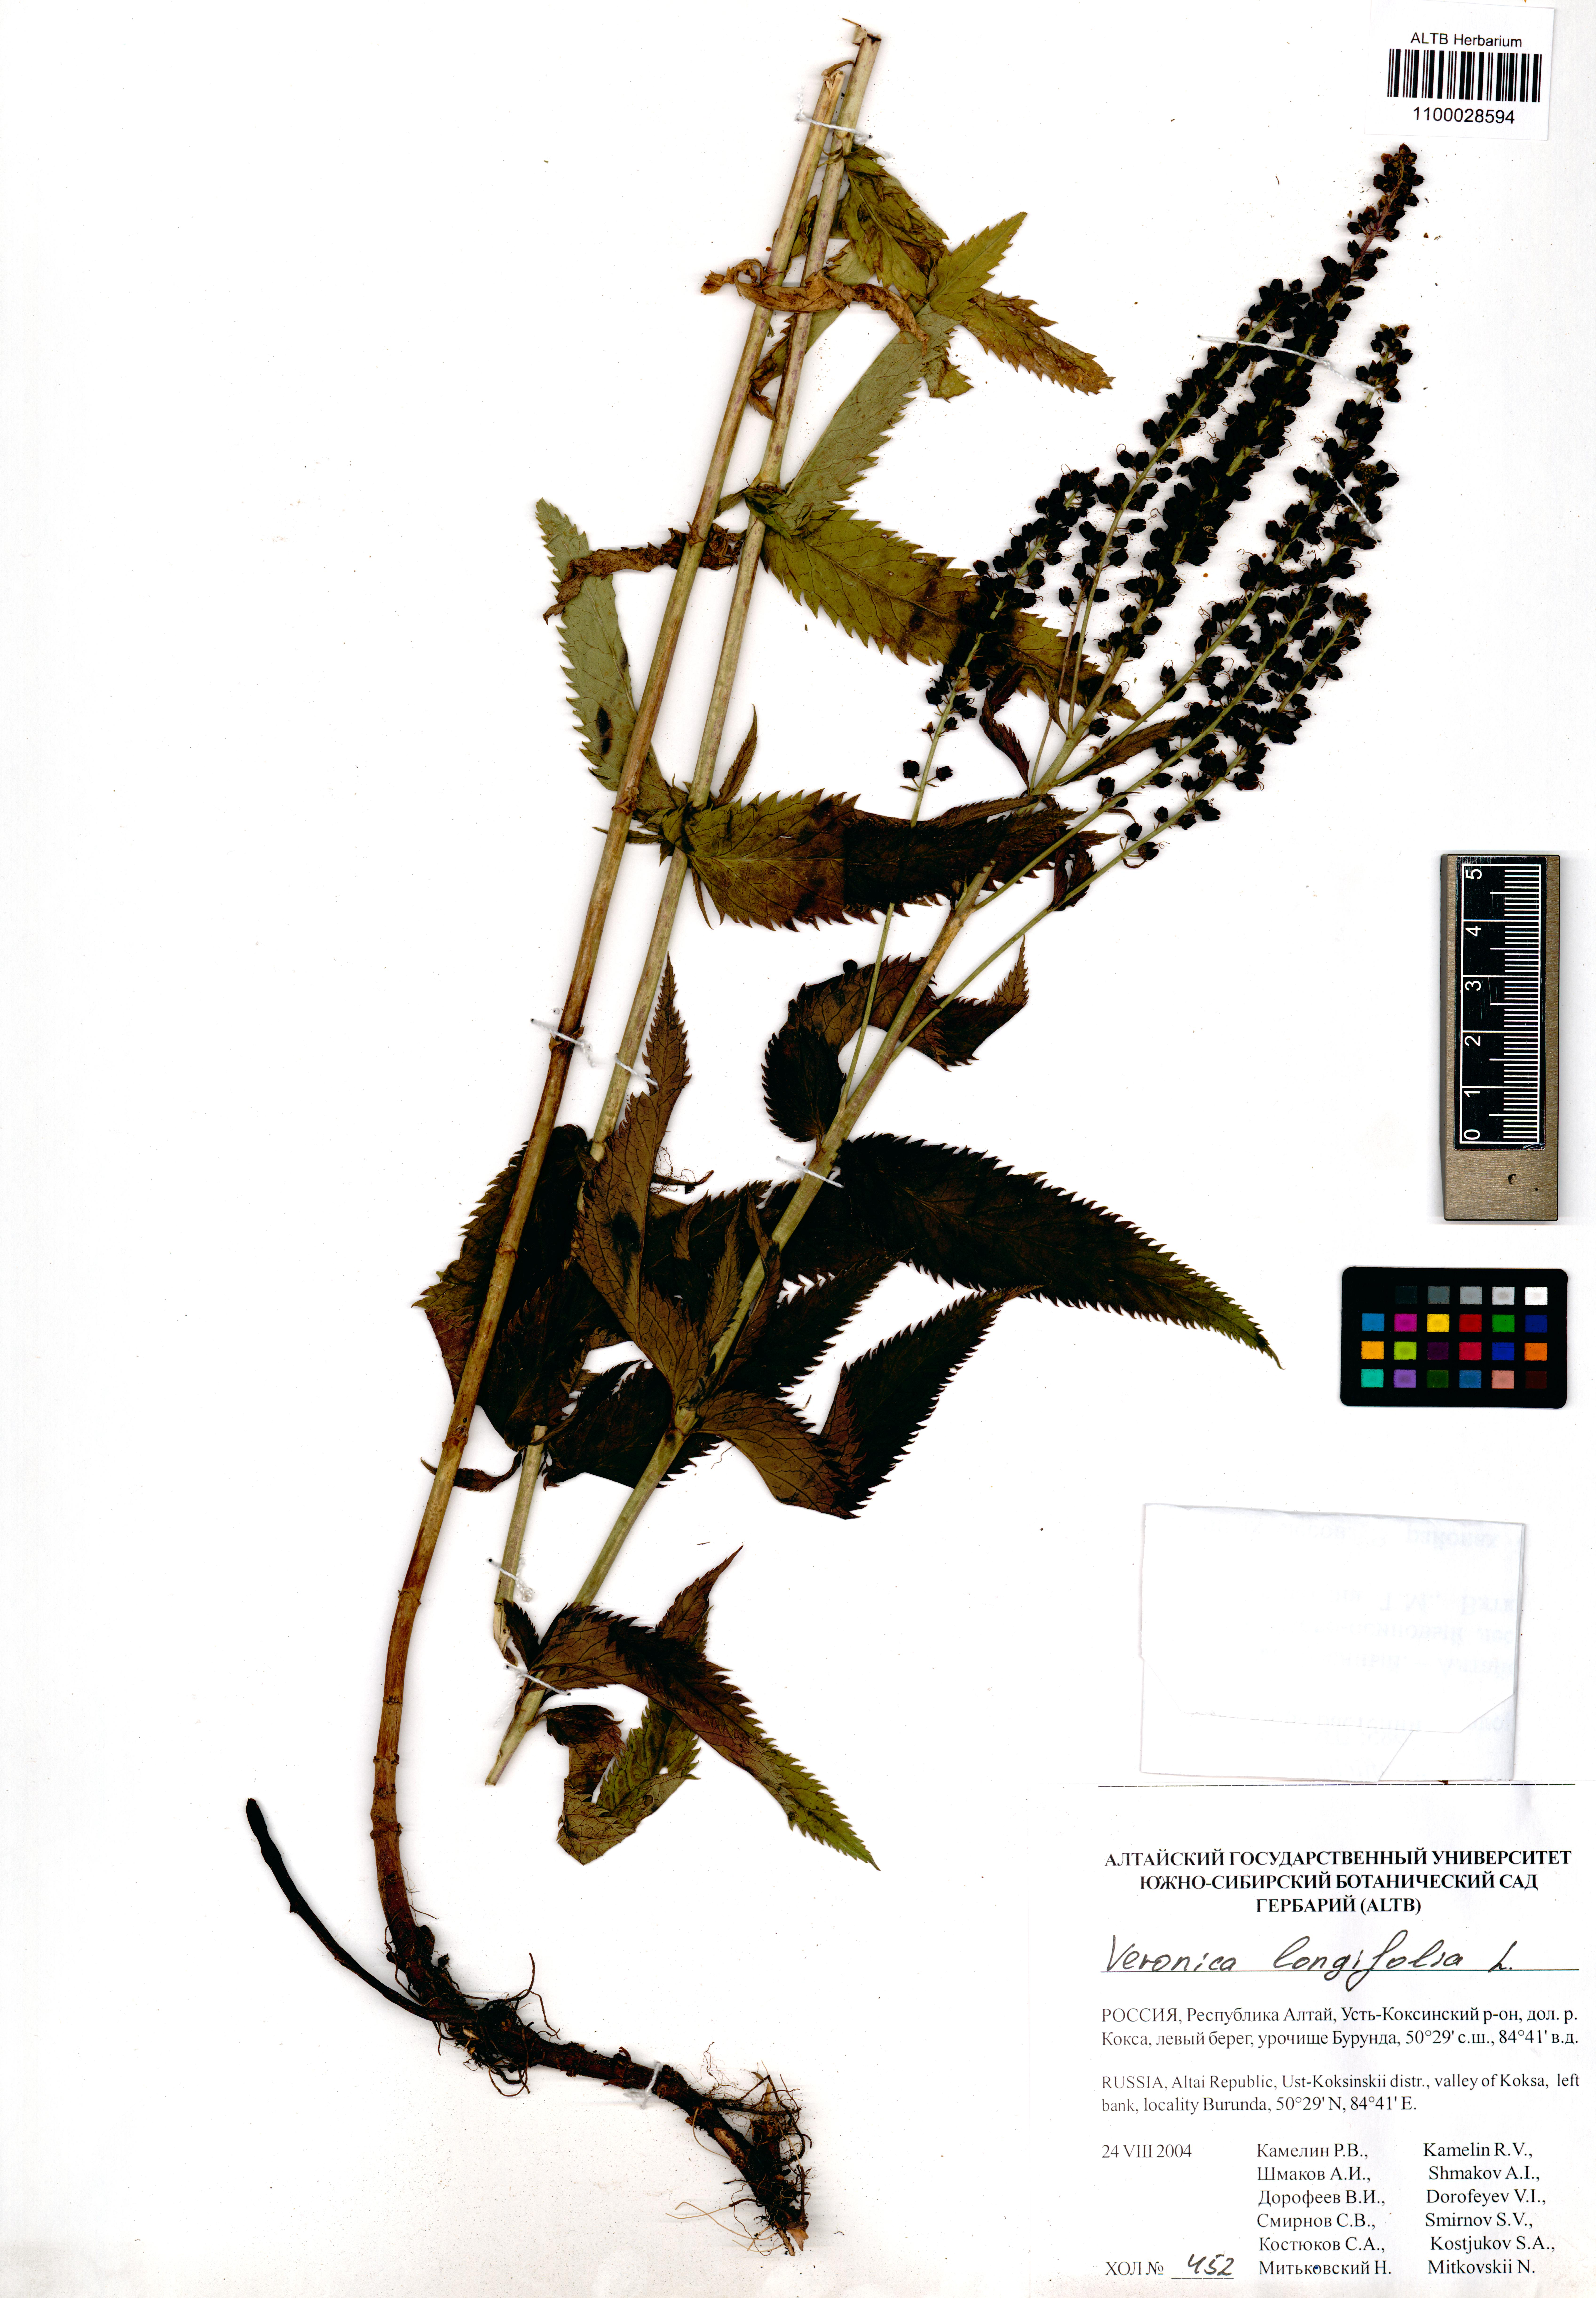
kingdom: Plantae
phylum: Tracheophyta
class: Magnoliopsida
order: Lamiales
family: Plantaginaceae
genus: Veronica
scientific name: Veronica longifolia
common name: Garden speedwell
